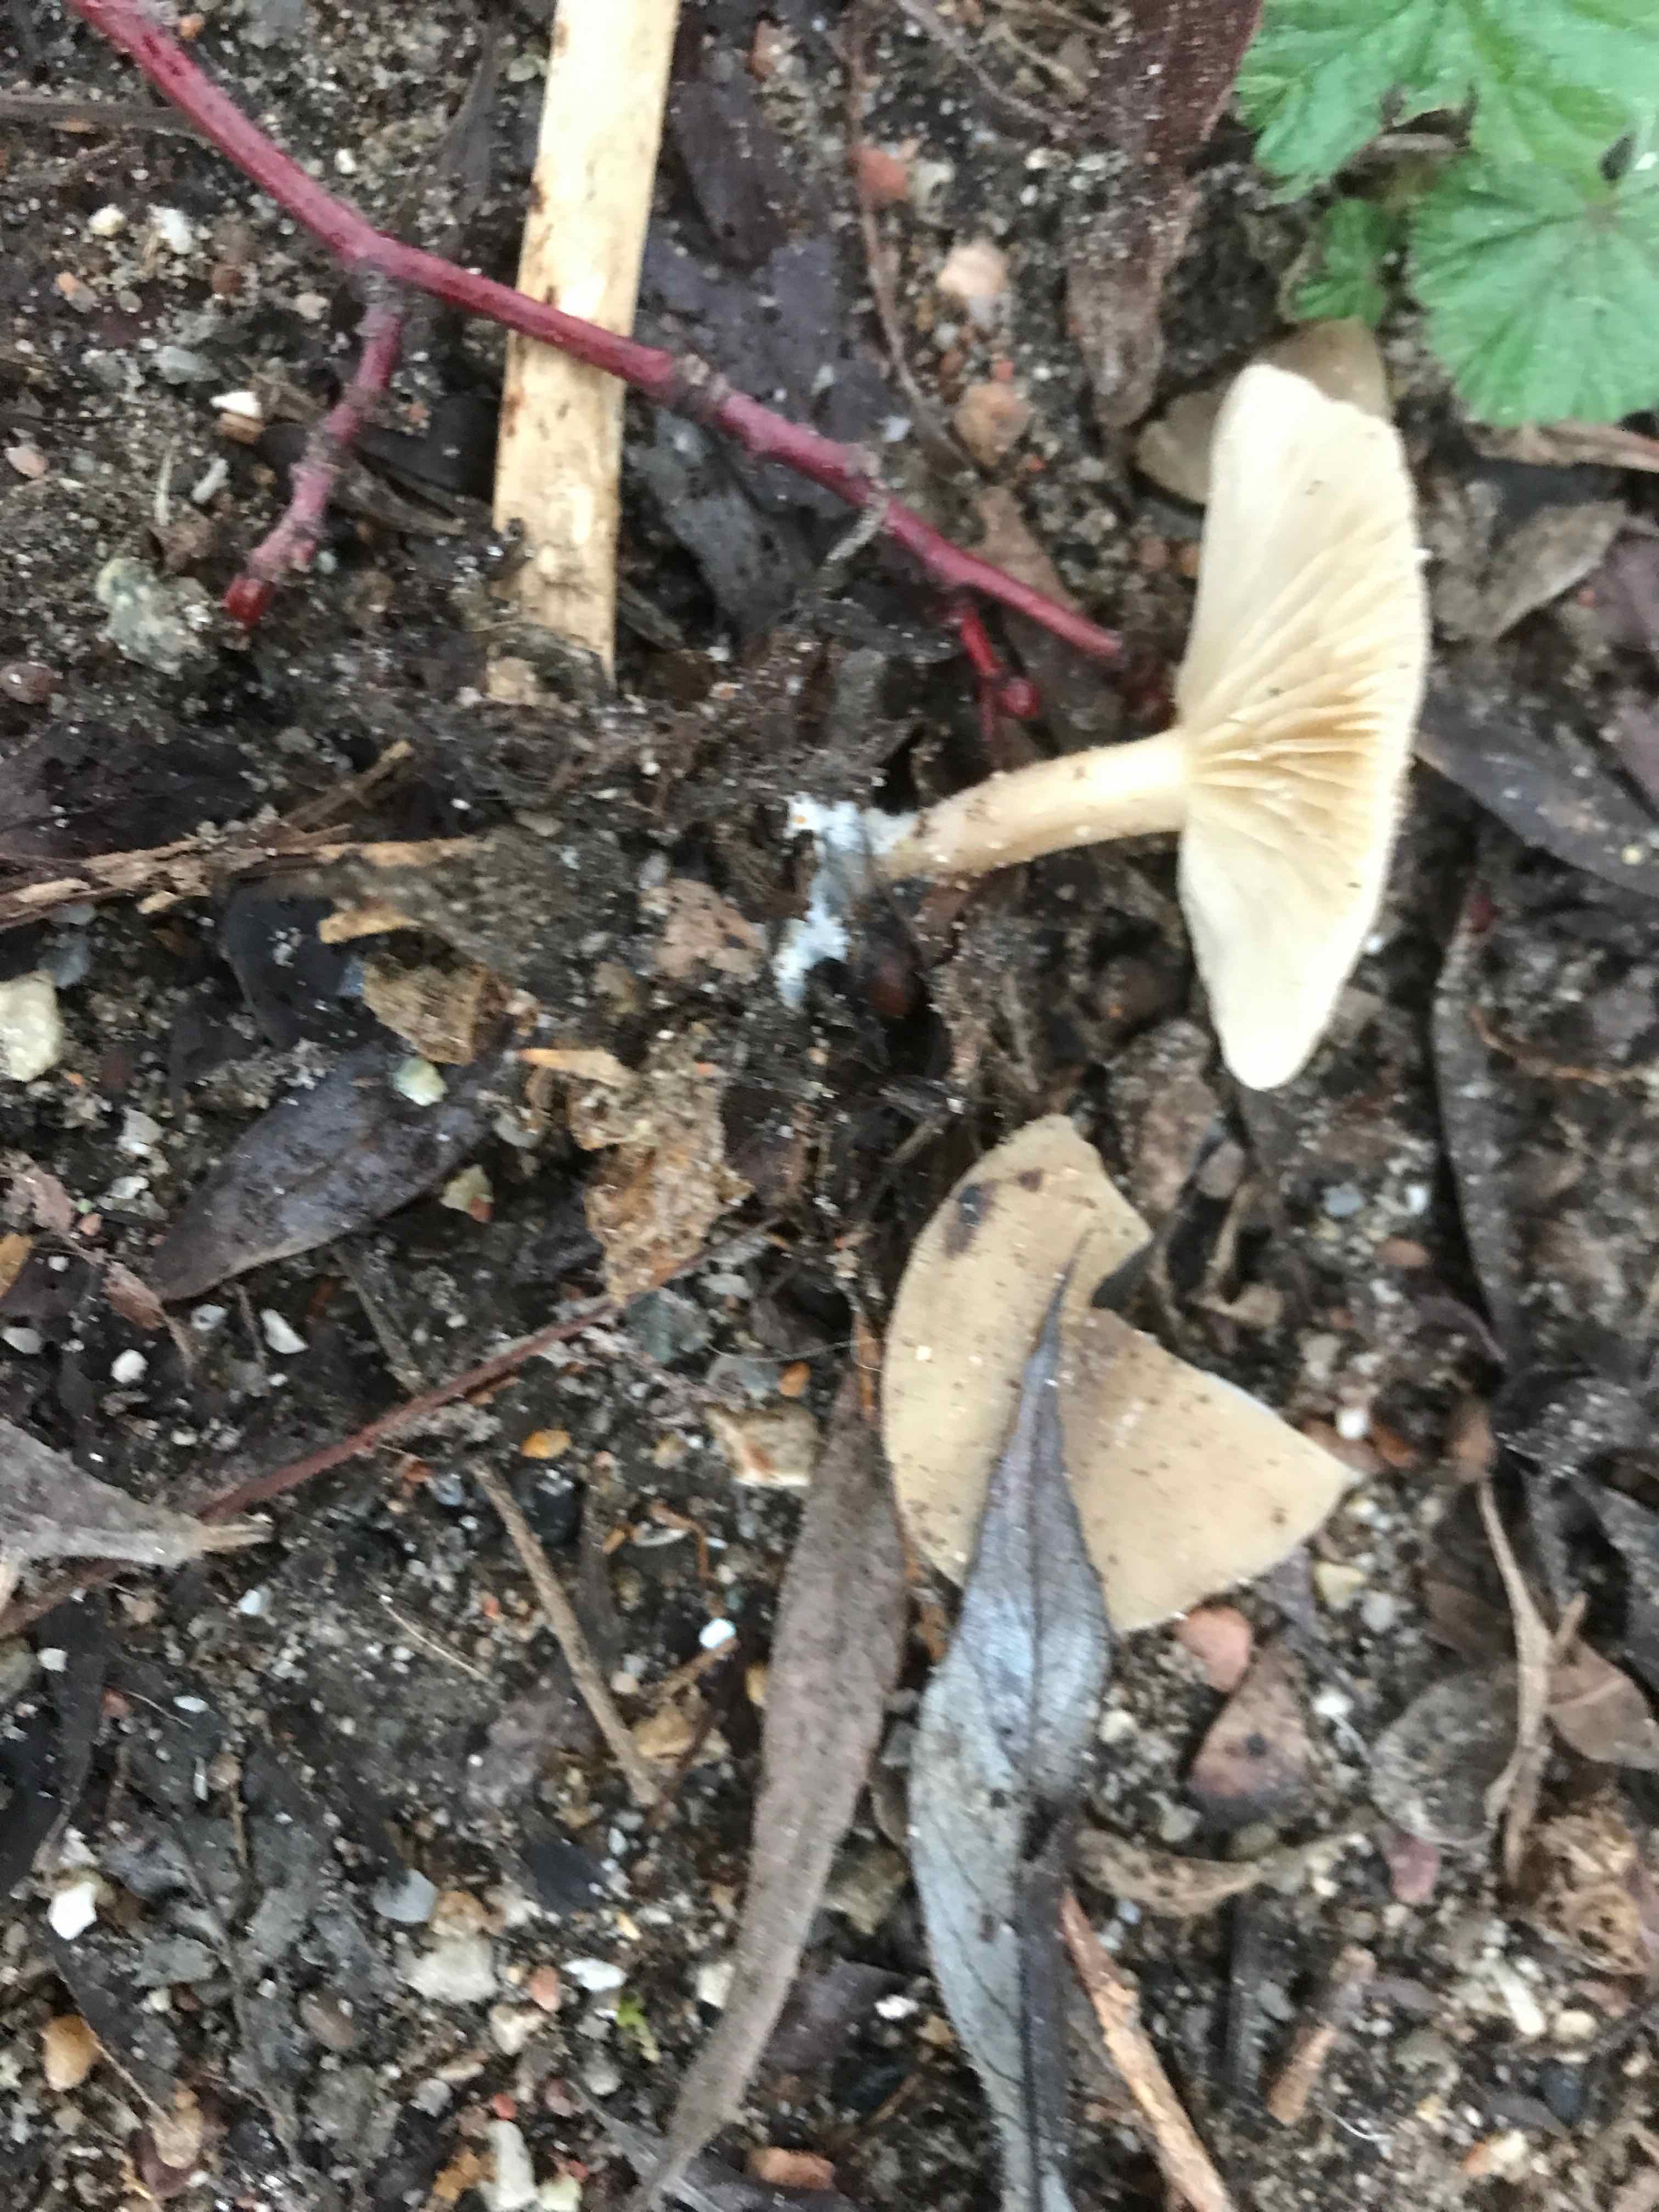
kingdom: Fungi
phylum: Basidiomycota
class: Agaricomycetes
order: Agaricales
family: Tricholomataceae
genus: Clitocybe
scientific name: Clitocybe fragrans
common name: vellugtende tragthat
